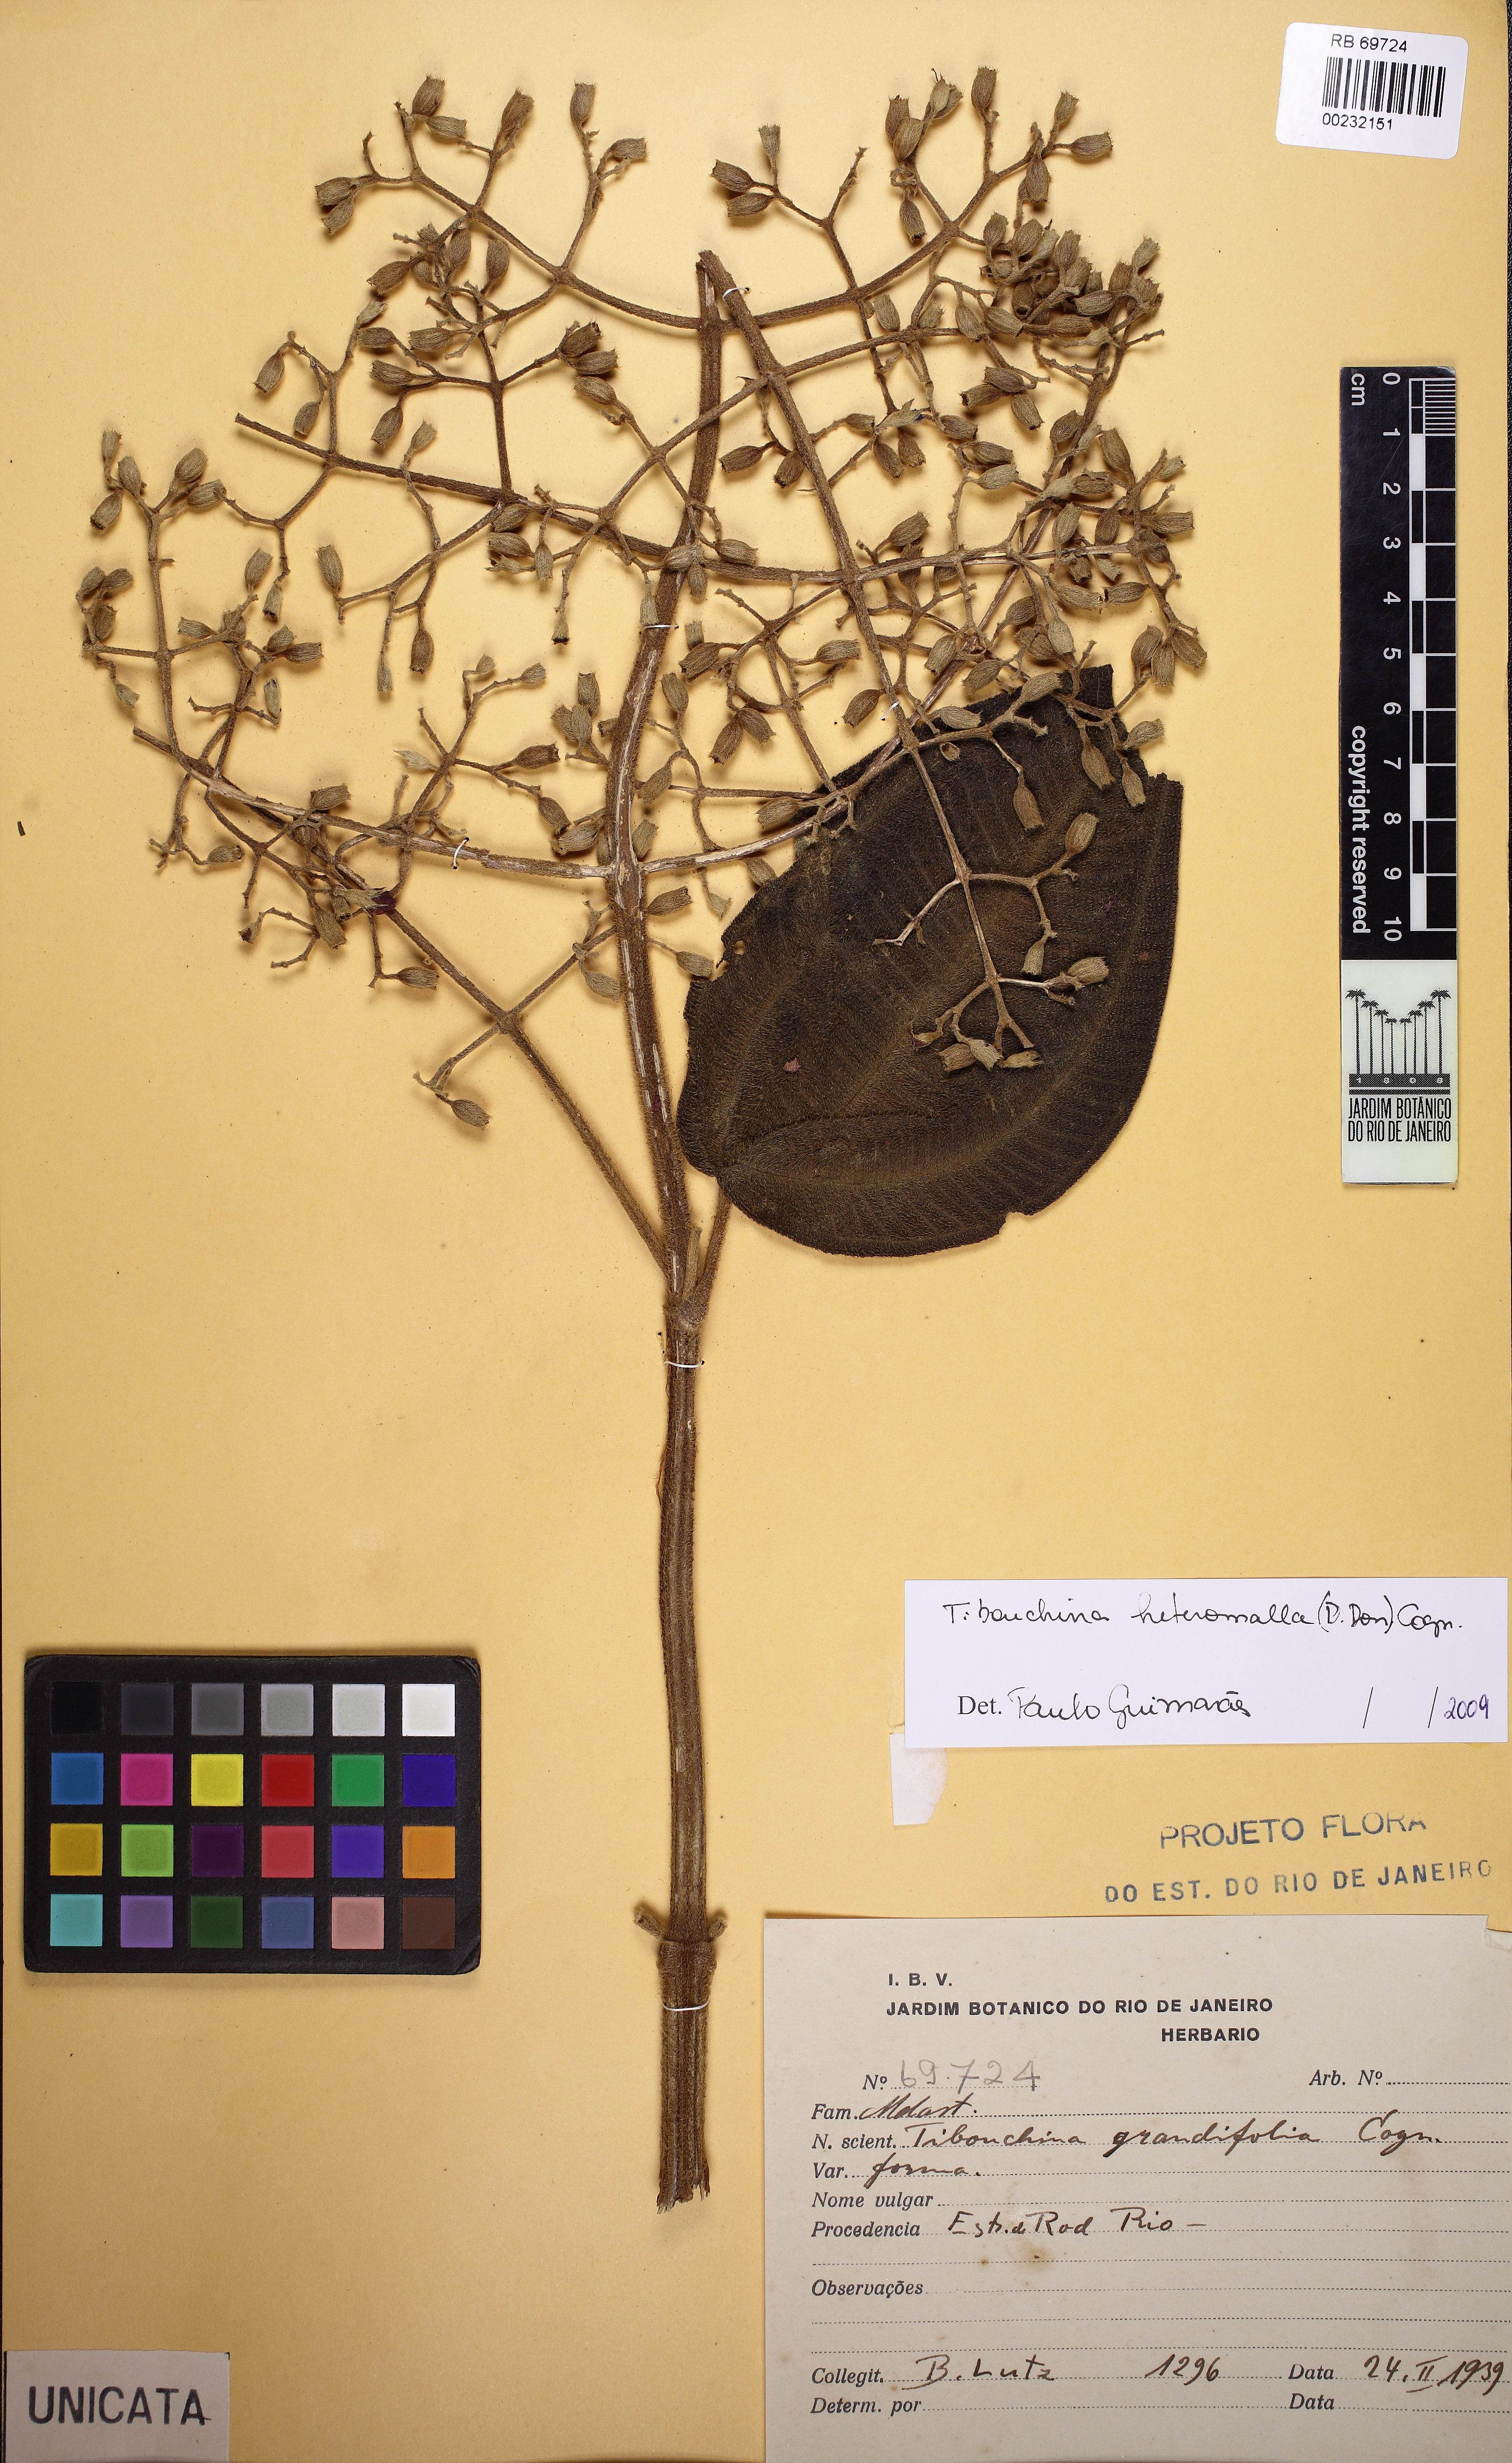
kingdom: Plantae
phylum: Tracheophyta
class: Magnoliopsida
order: Myrtales
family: Melastomataceae
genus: Pleroma
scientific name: Pleroma heteromallum
